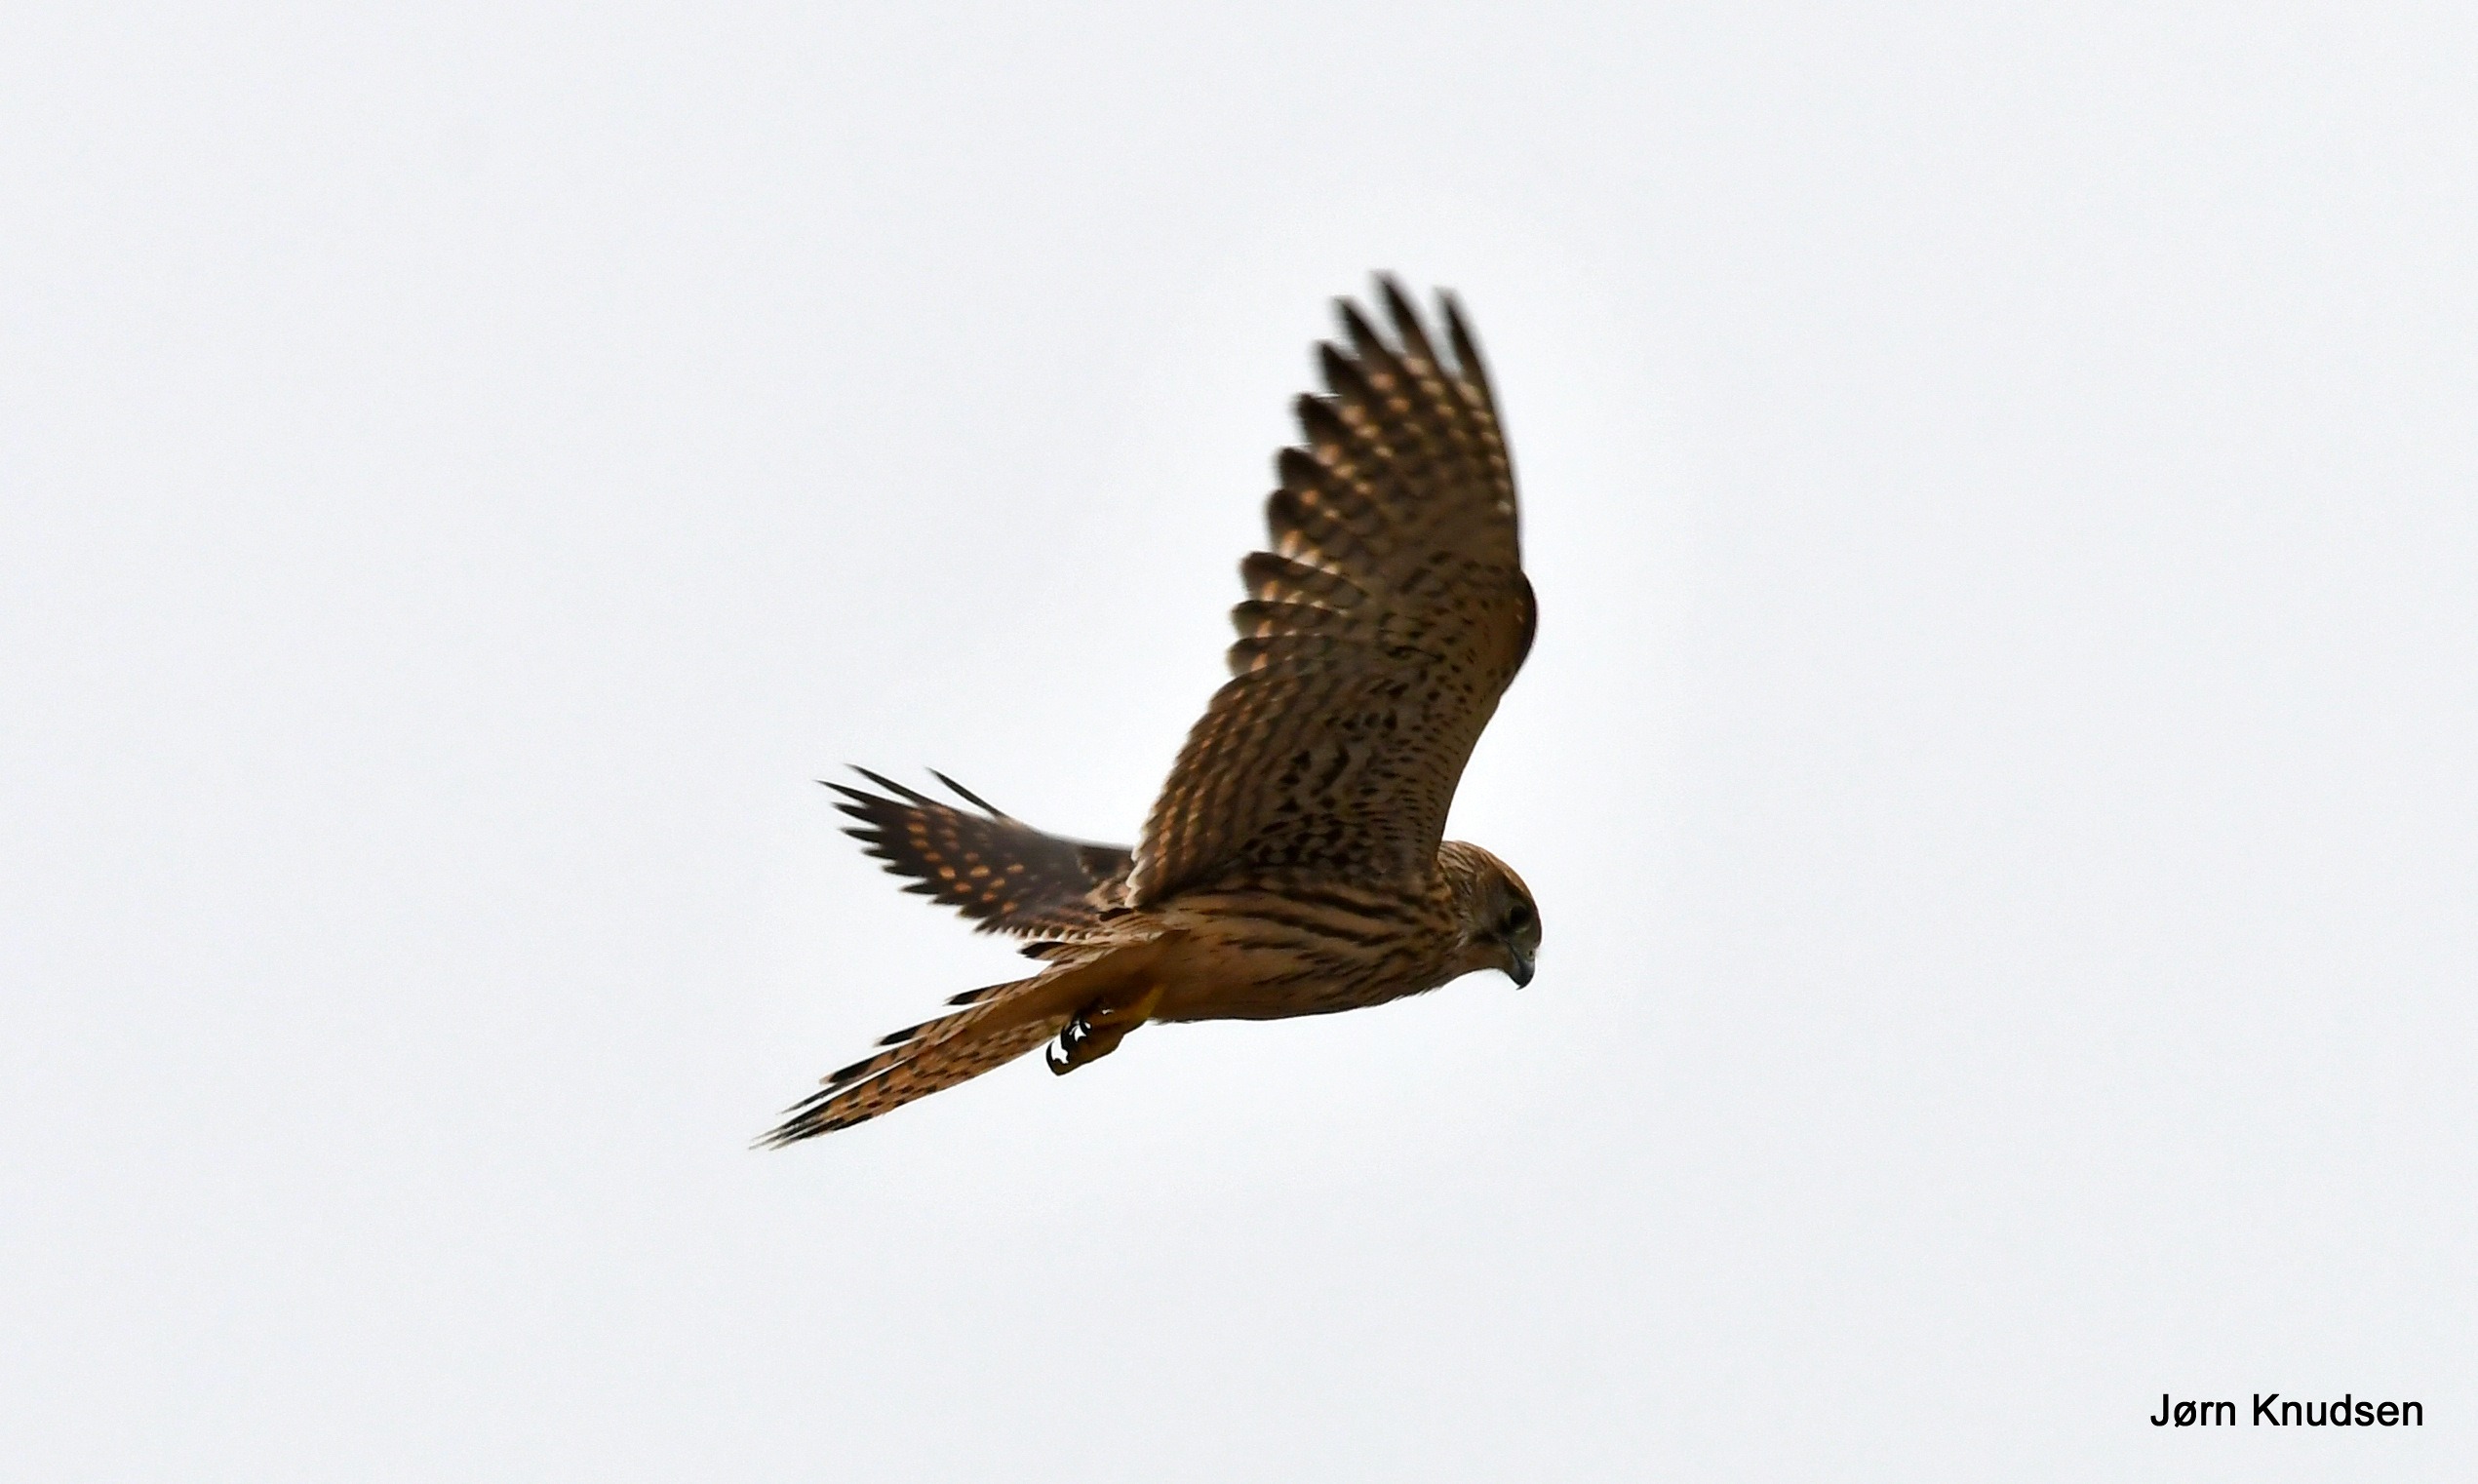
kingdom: Animalia
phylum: Chordata
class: Aves
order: Falconiformes
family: Falconidae
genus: Falco
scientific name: Falco tinnunculus
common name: Tårnfalk
